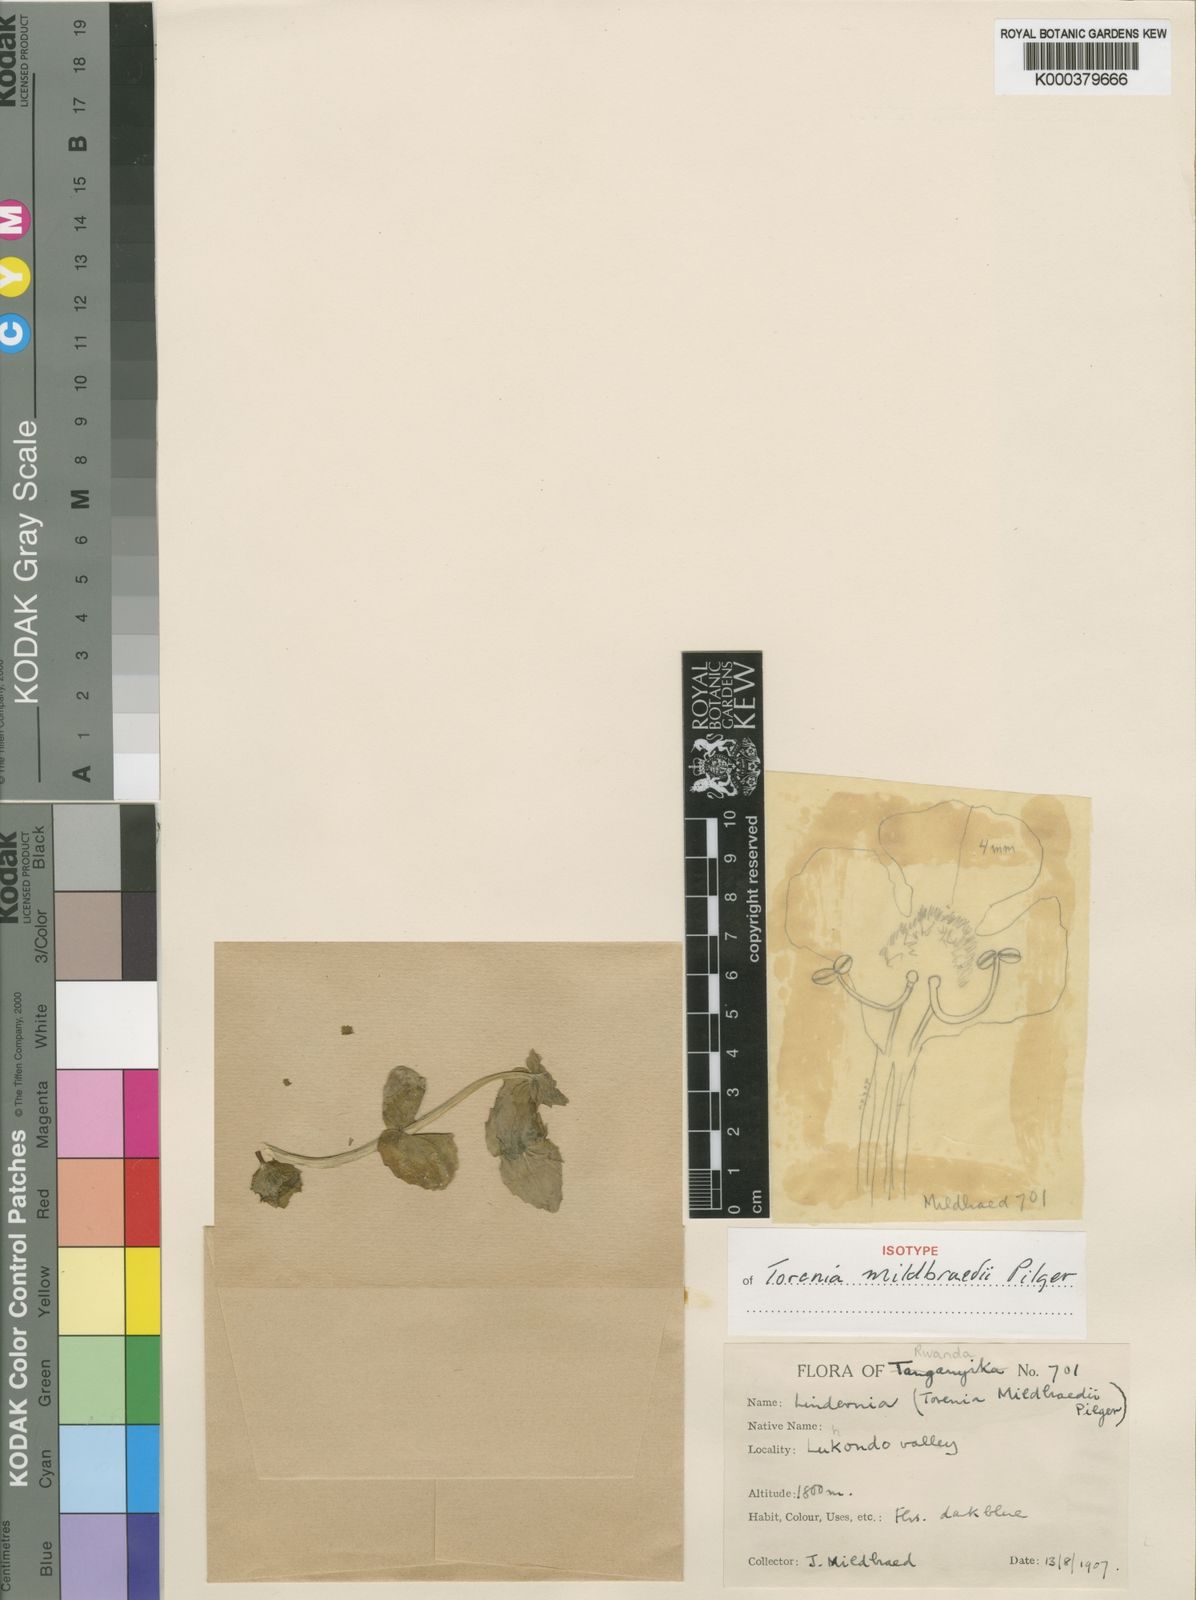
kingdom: Plantae
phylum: Tracheophyta
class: Magnoliopsida
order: Lamiales
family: Linderniaceae
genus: Crepidorhopalon
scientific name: Crepidorhopalon whytei
